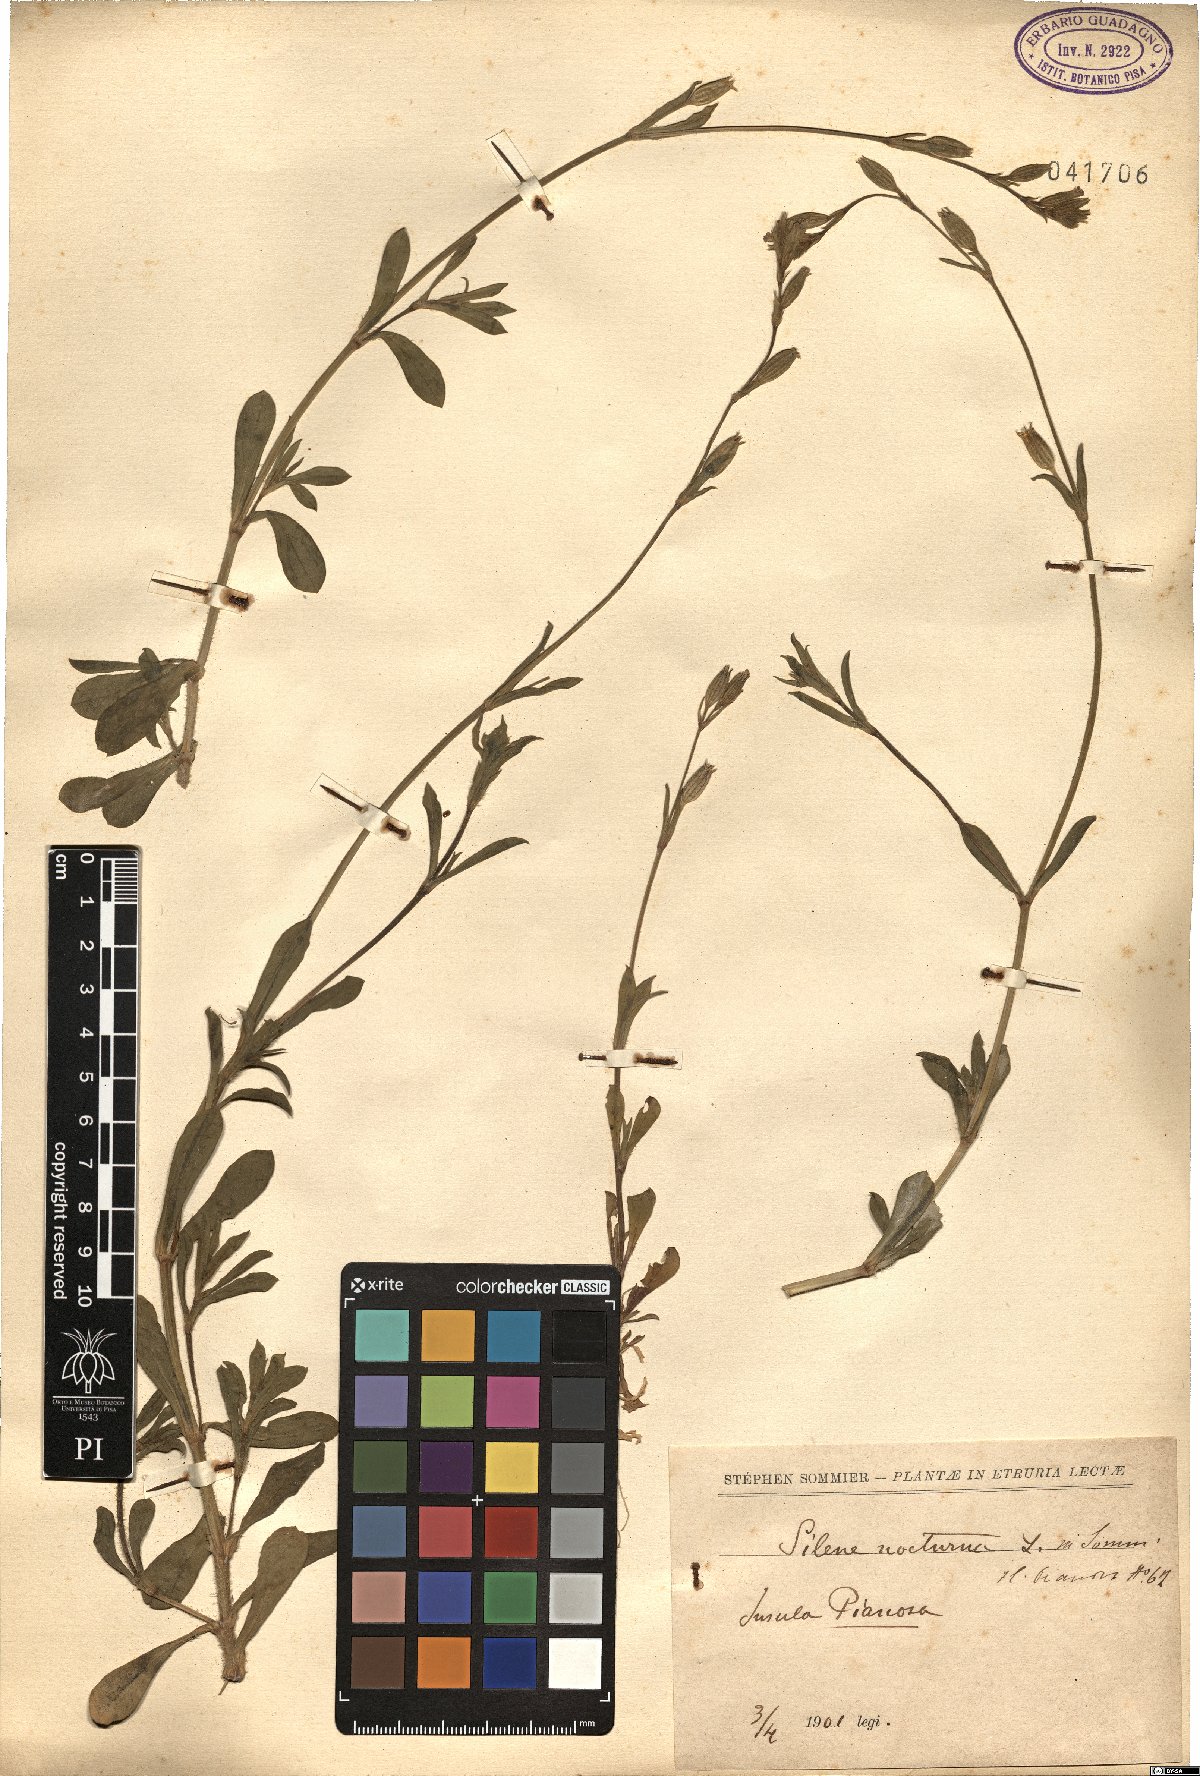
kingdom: Plantae
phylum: Tracheophyta
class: Magnoliopsida
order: Caryophyllales
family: Caryophyllaceae
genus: Silene
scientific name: Silene nocturna
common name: Mediterranean catchfly
